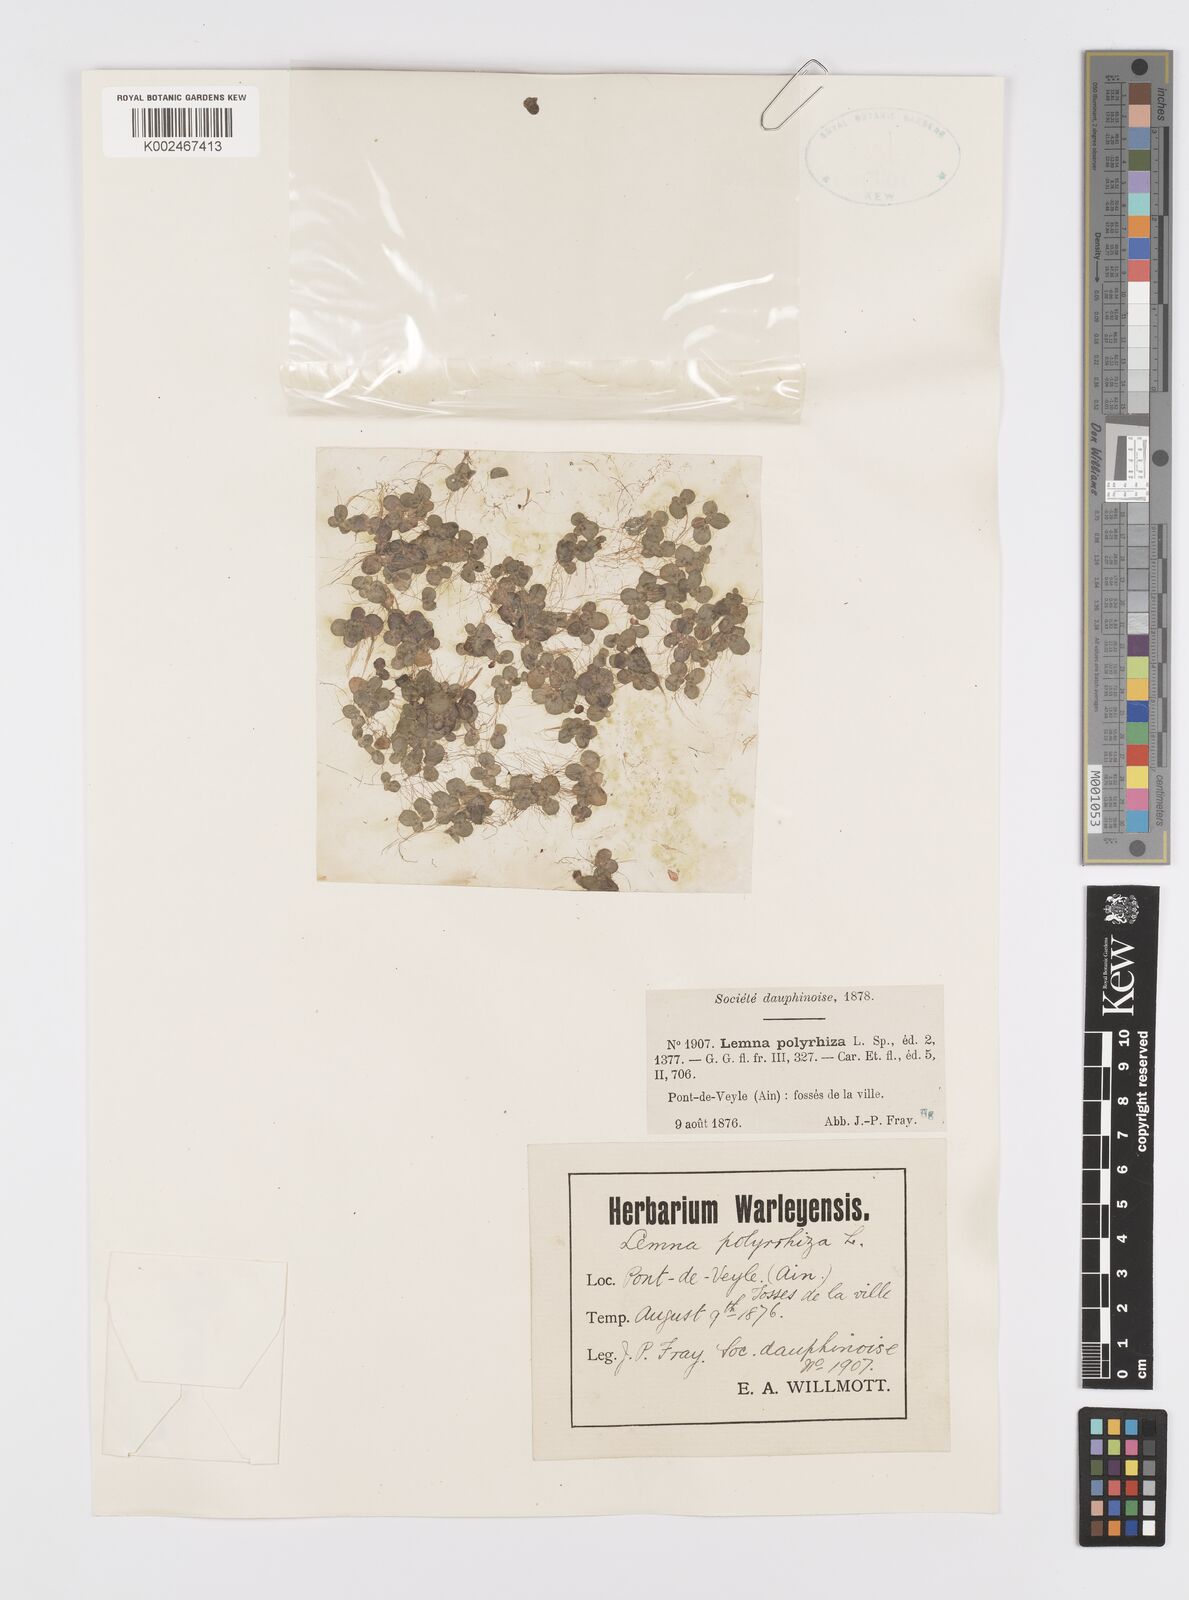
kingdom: Plantae
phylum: Tracheophyta
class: Liliopsida
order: Alismatales
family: Araceae
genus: Spirodela
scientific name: Spirodela polyrhiza
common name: Great duckweed
